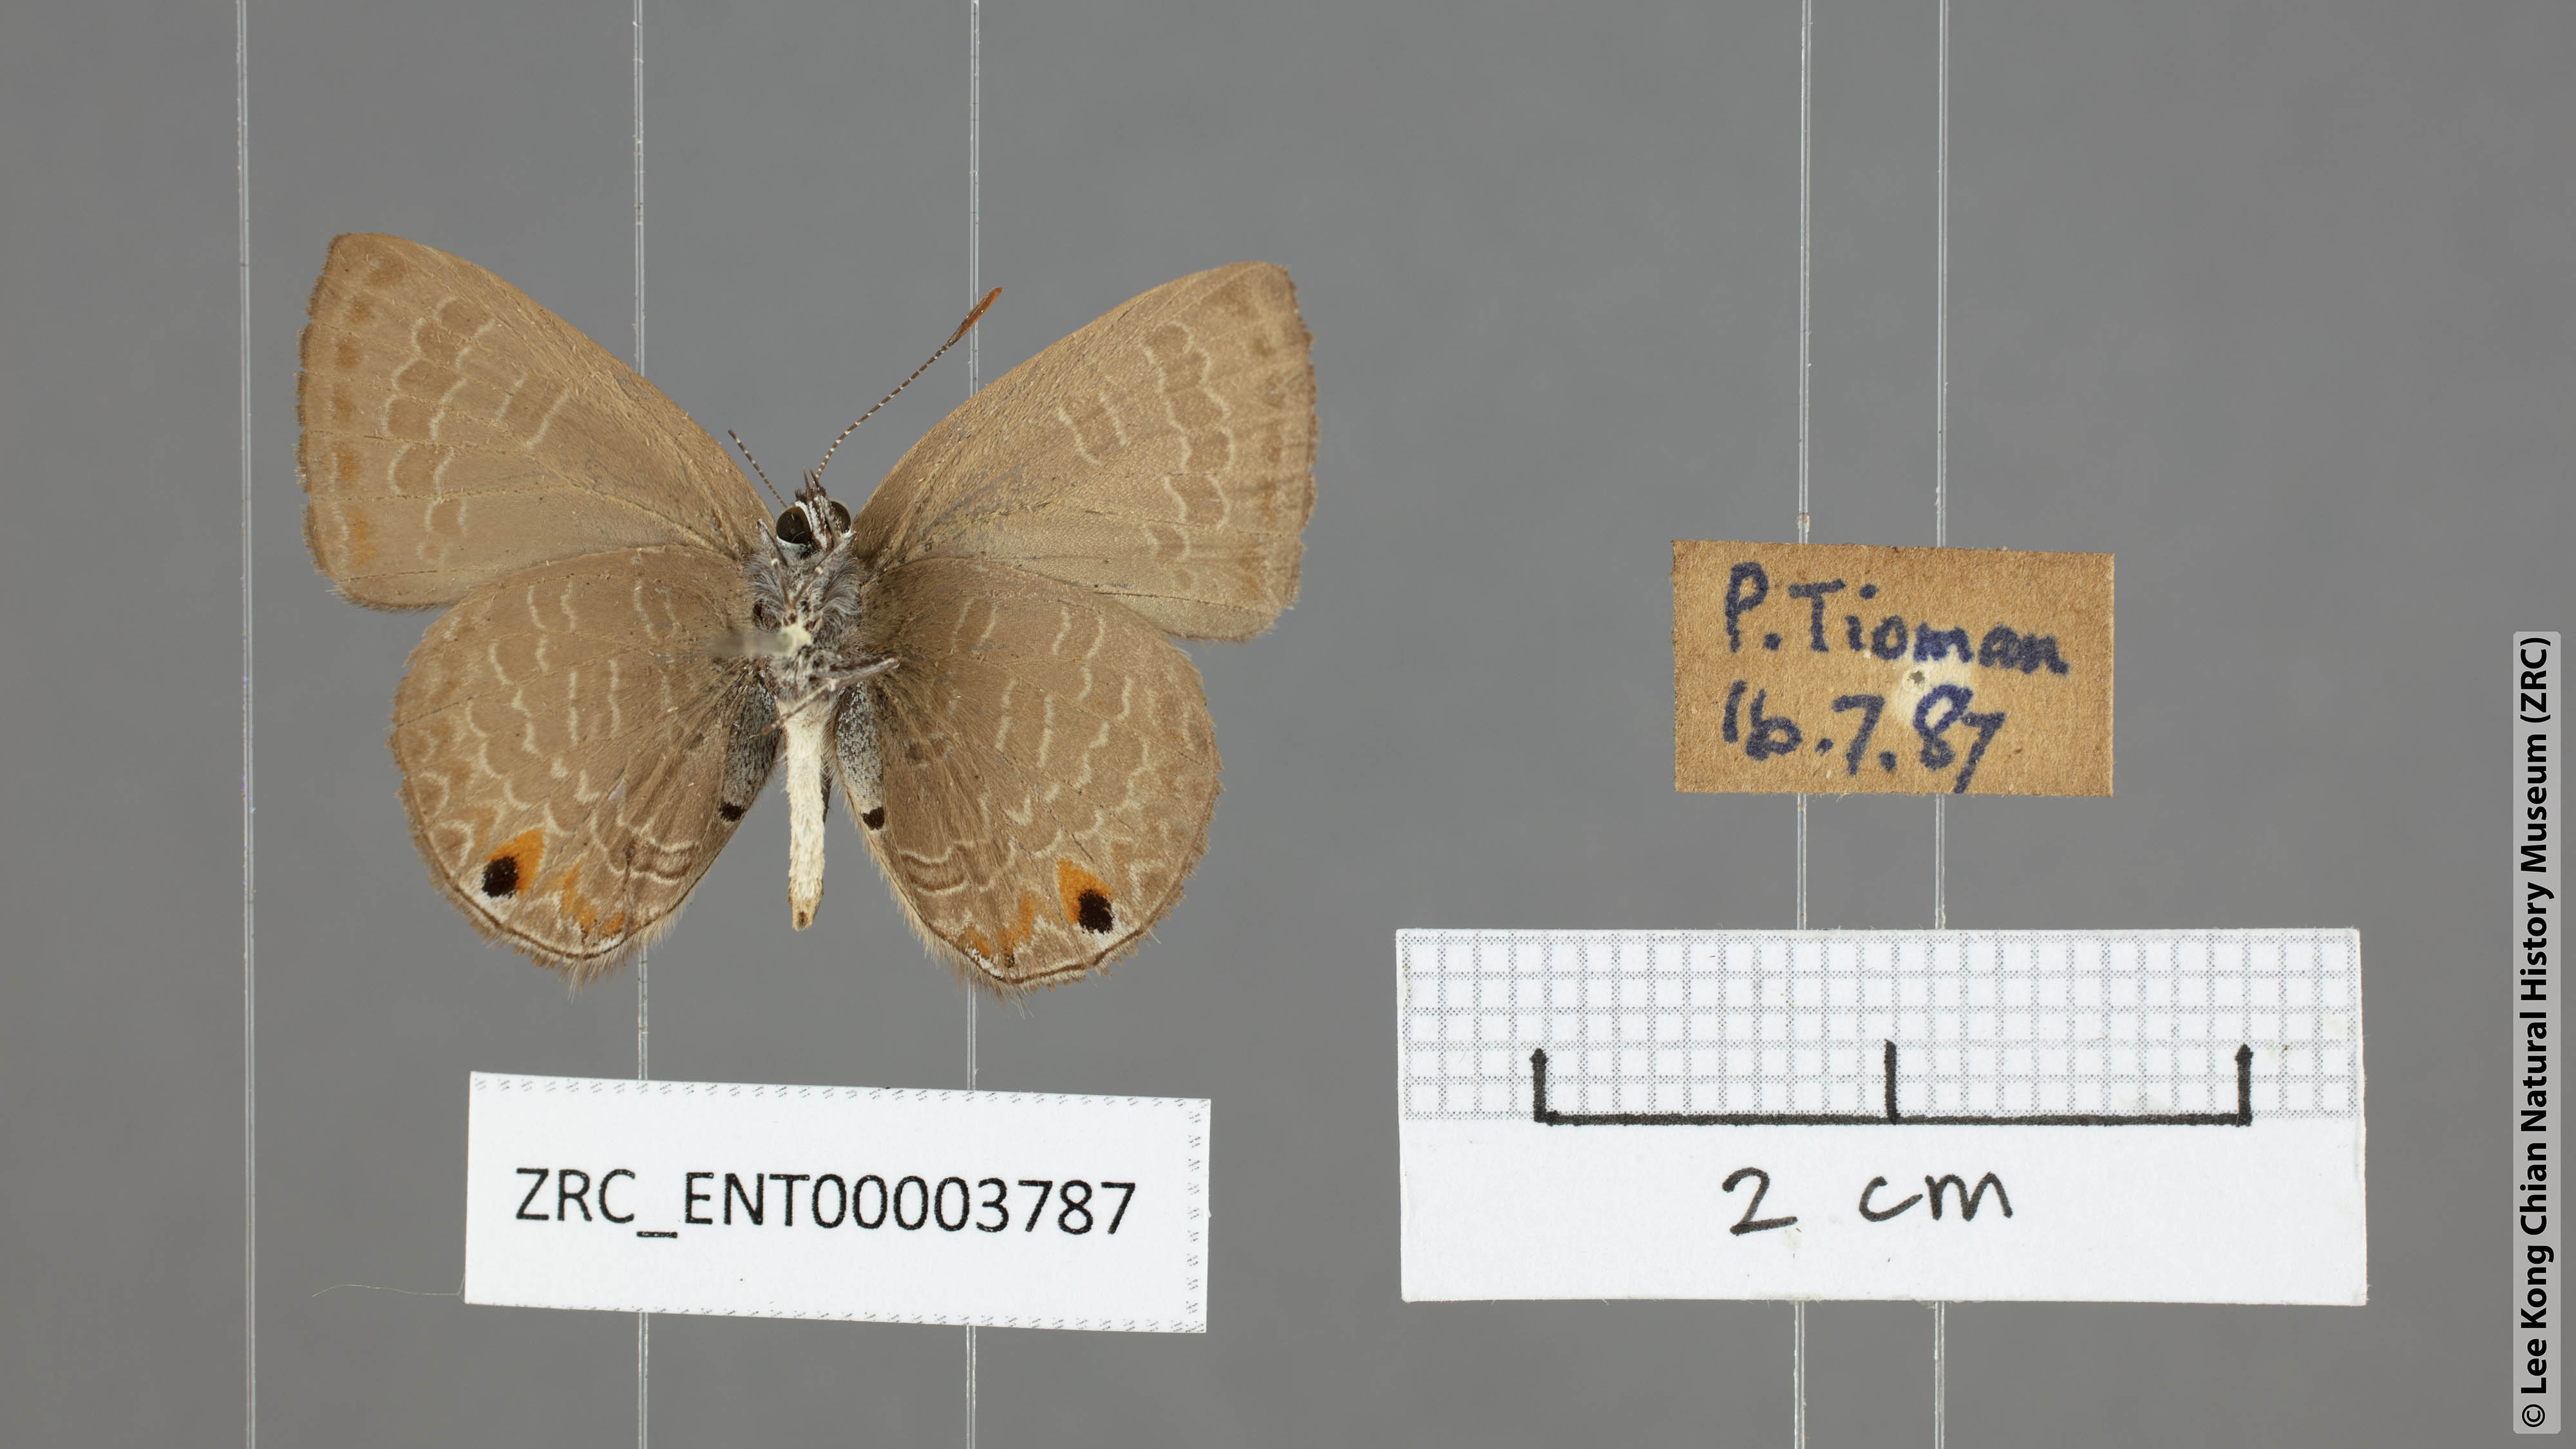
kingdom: Animalia
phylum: Arthropoda
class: Insecta
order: Lepidoptera
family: Lycaenidae
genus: Anthene
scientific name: Anthene emolus
